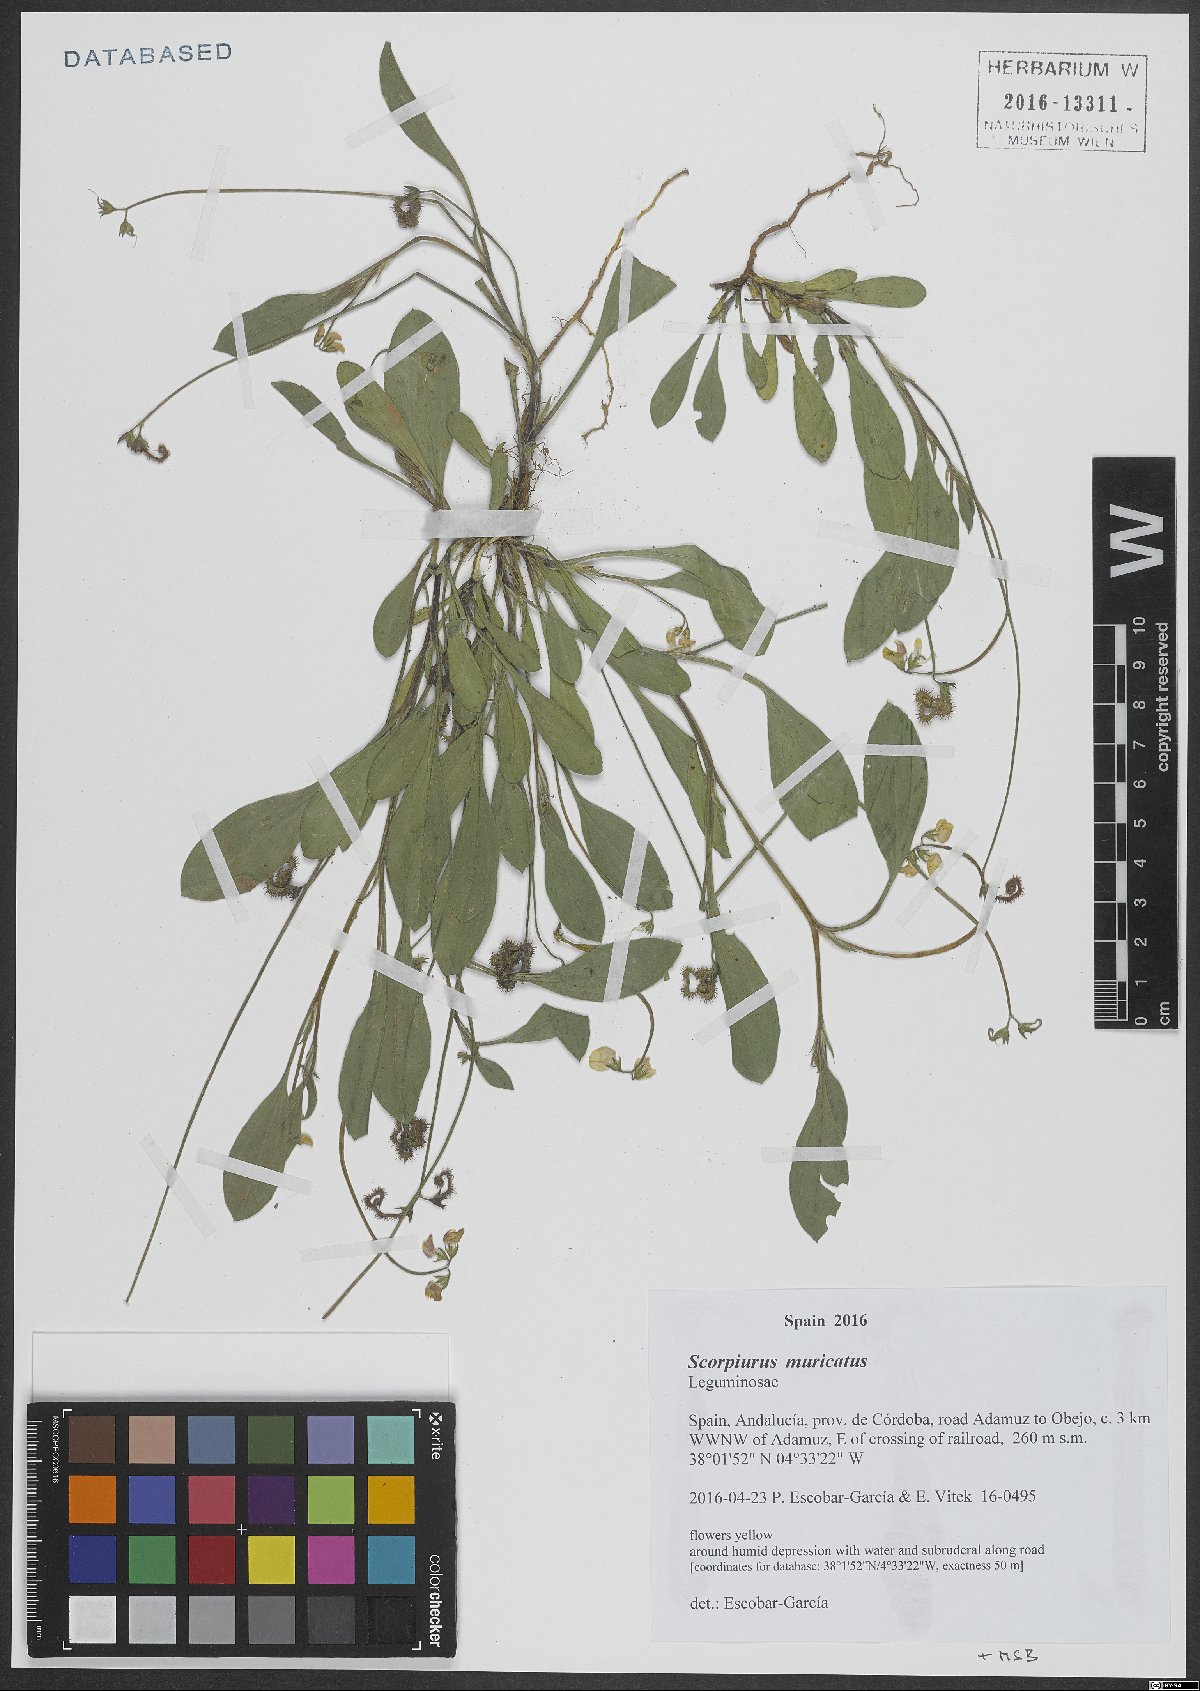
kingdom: Plantae
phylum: Tracheophyta
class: Magnoliopsida
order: Fabales
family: Fabaceae
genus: Scorpiurus
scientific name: Scorpiurus muricatus
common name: Caterpillar-plant
